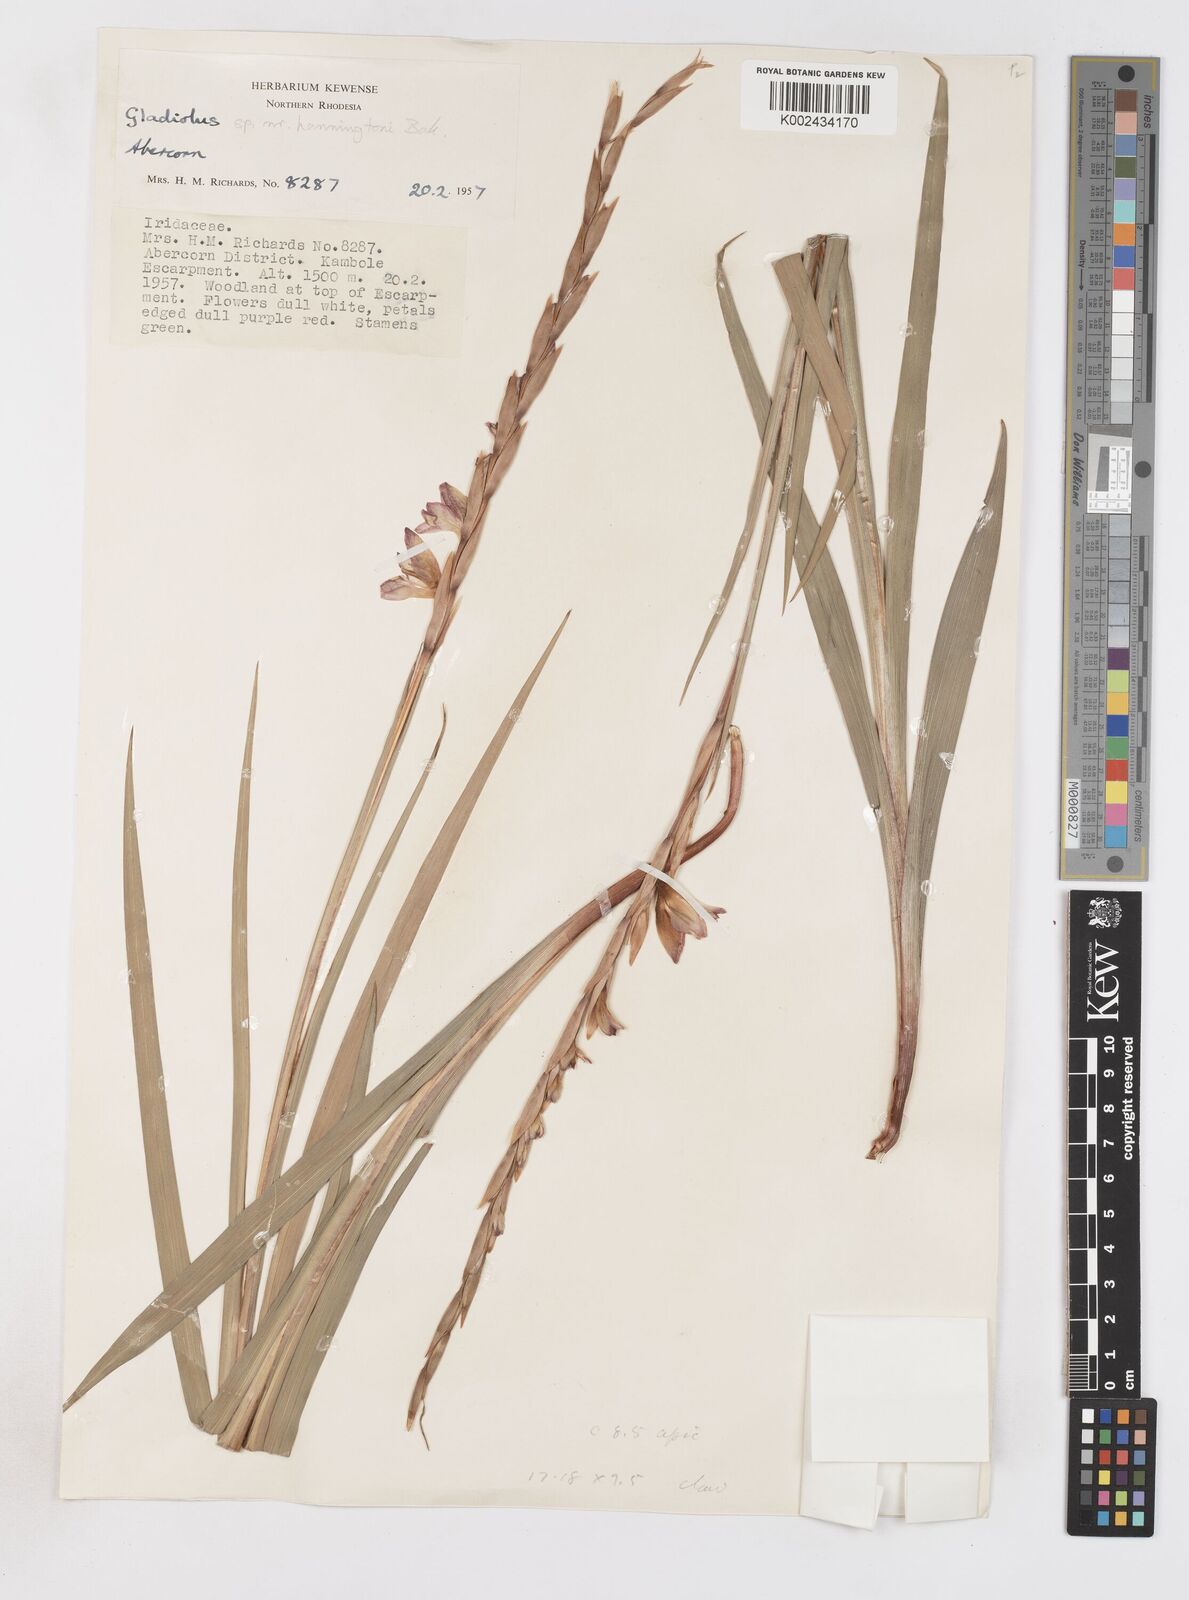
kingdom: Plantae
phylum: Tracheophyta
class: Liliopsida
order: Asparagales
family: Iridaceae
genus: Gladiolus
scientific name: Gladiolus gregarius
